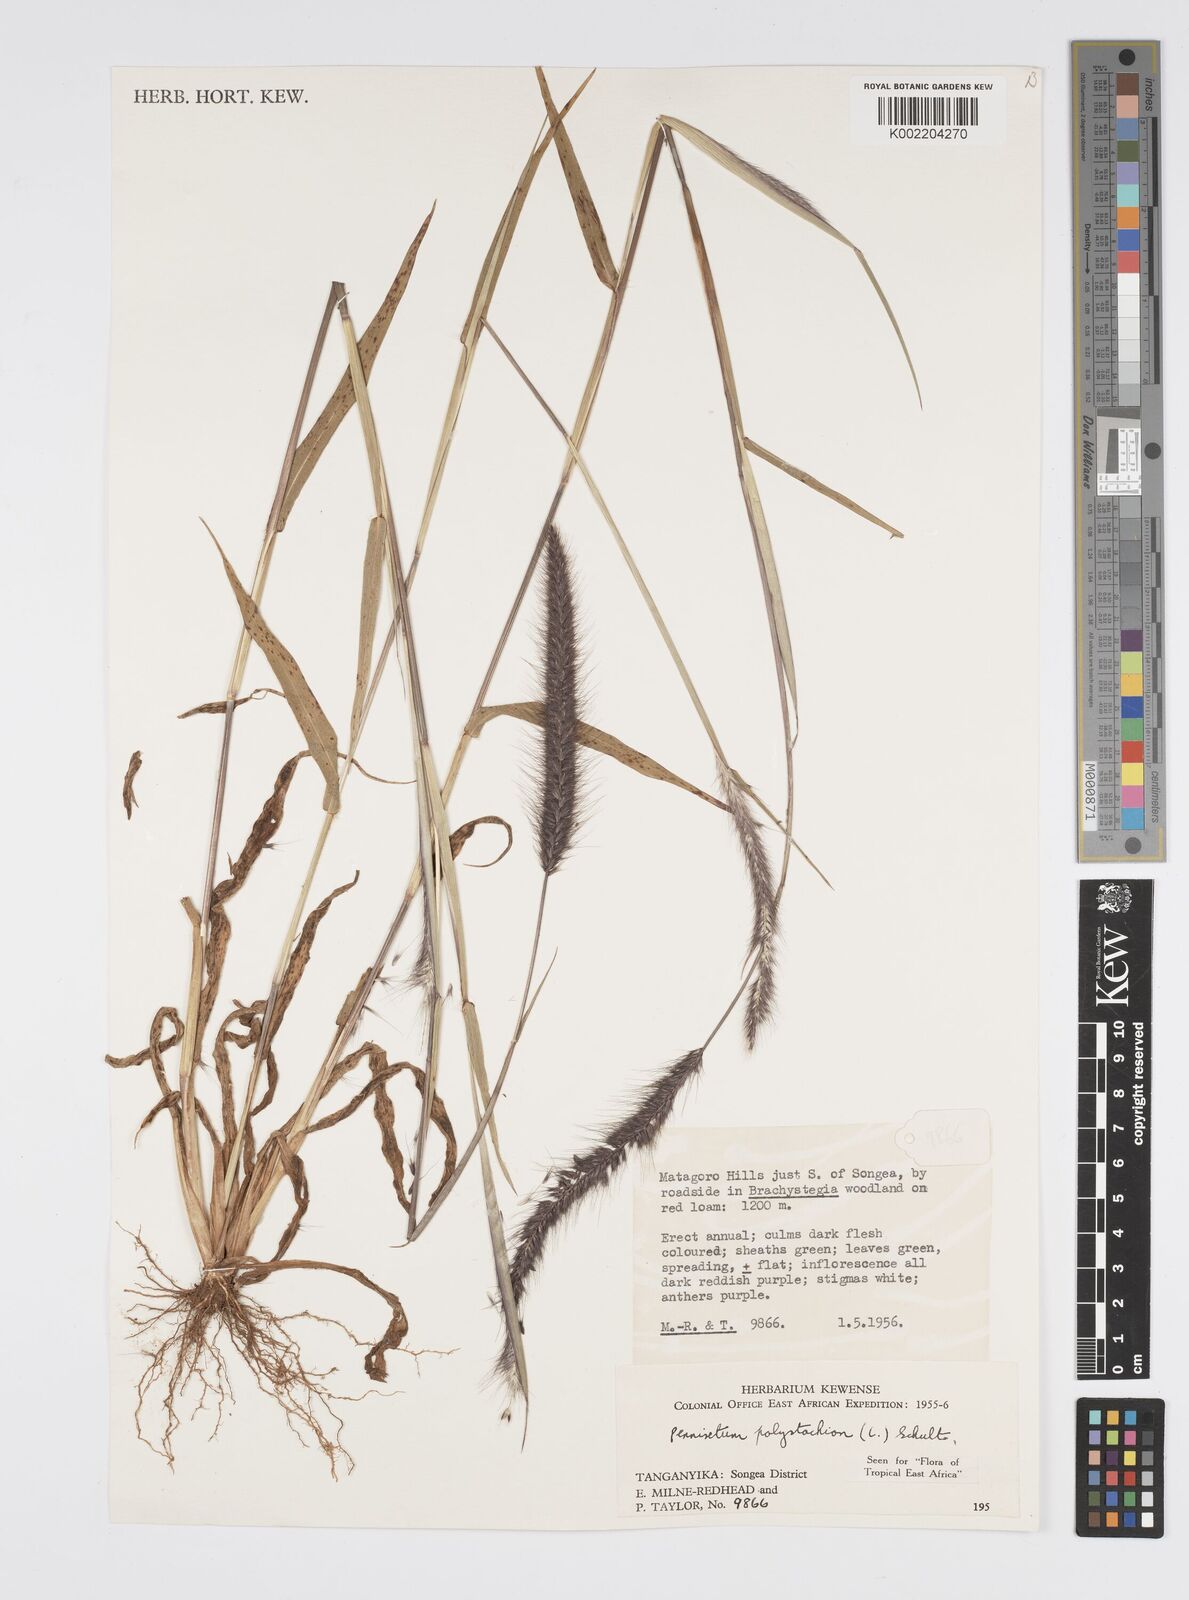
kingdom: Plantae
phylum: Tracheophyta
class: Liliopsida
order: Poales
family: Poaceae
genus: Setaria
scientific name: Setaria parviflora
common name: Knotroot bristle-grass
